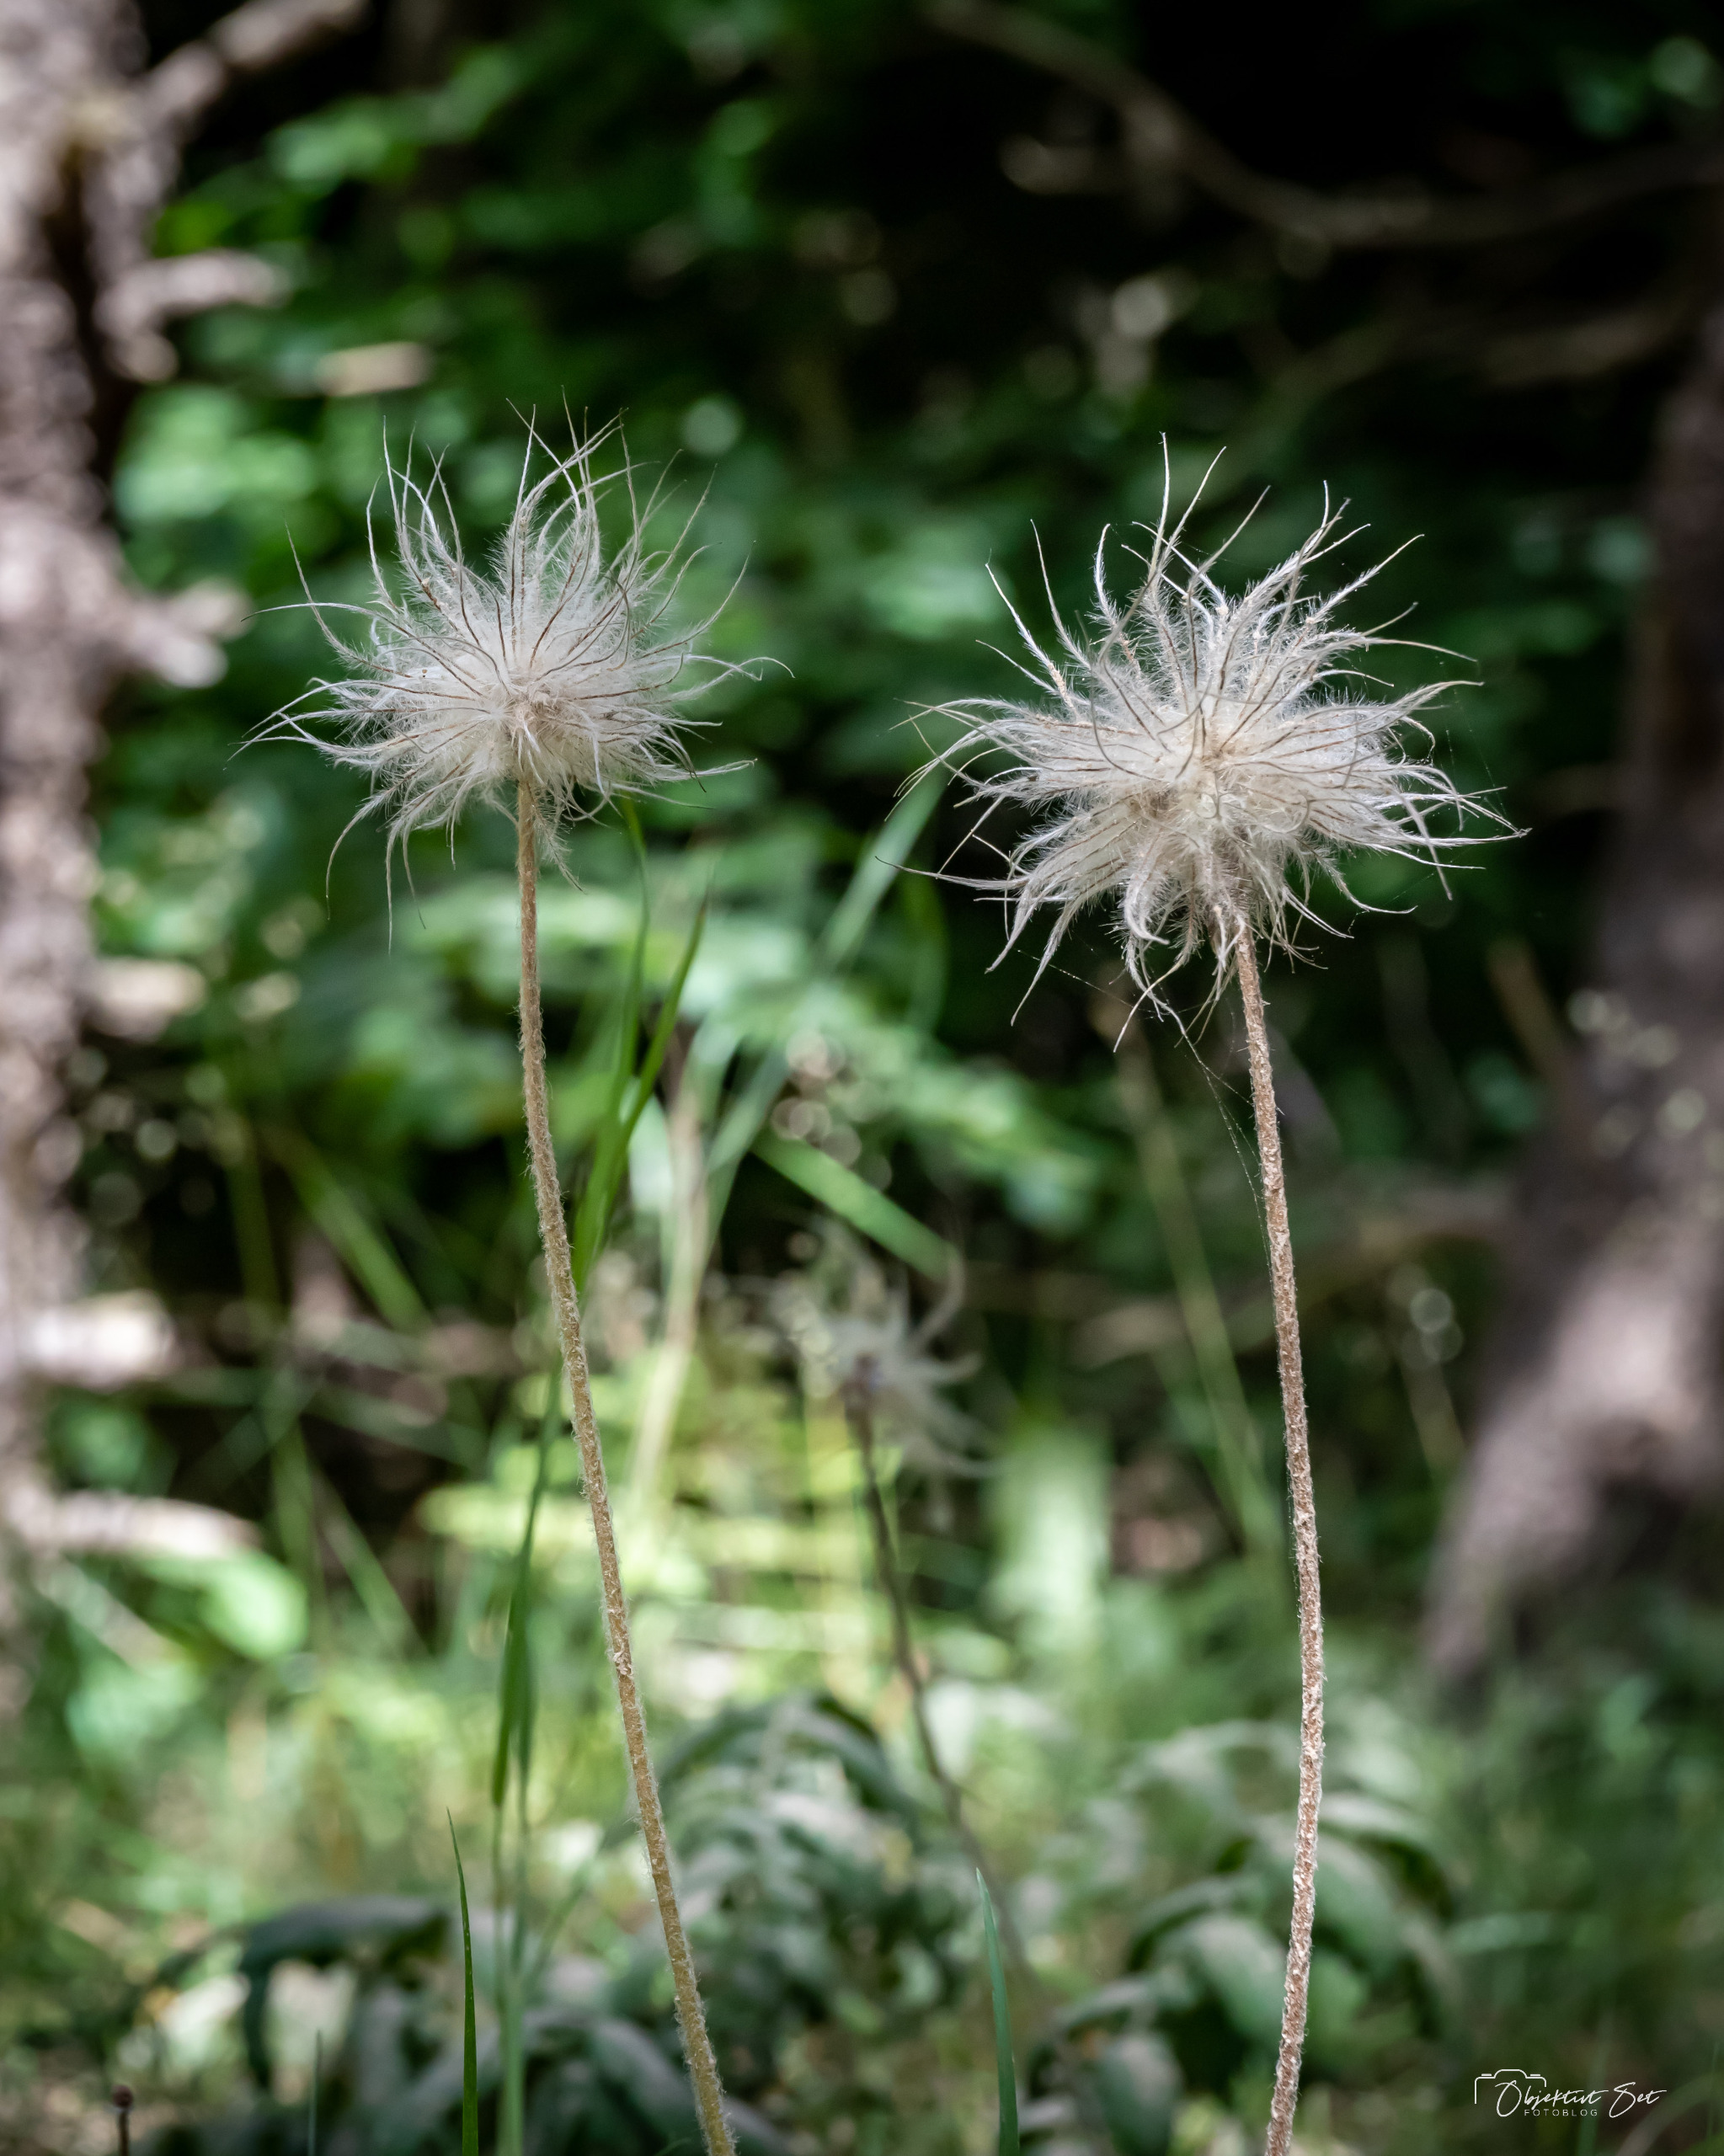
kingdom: Plantae
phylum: Tracheophyta
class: Magnoliopsida
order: Ranunculales
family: Ranunculaceae
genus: Pulsatilla
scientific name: Pulsatilla
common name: Kobjældeslægten
